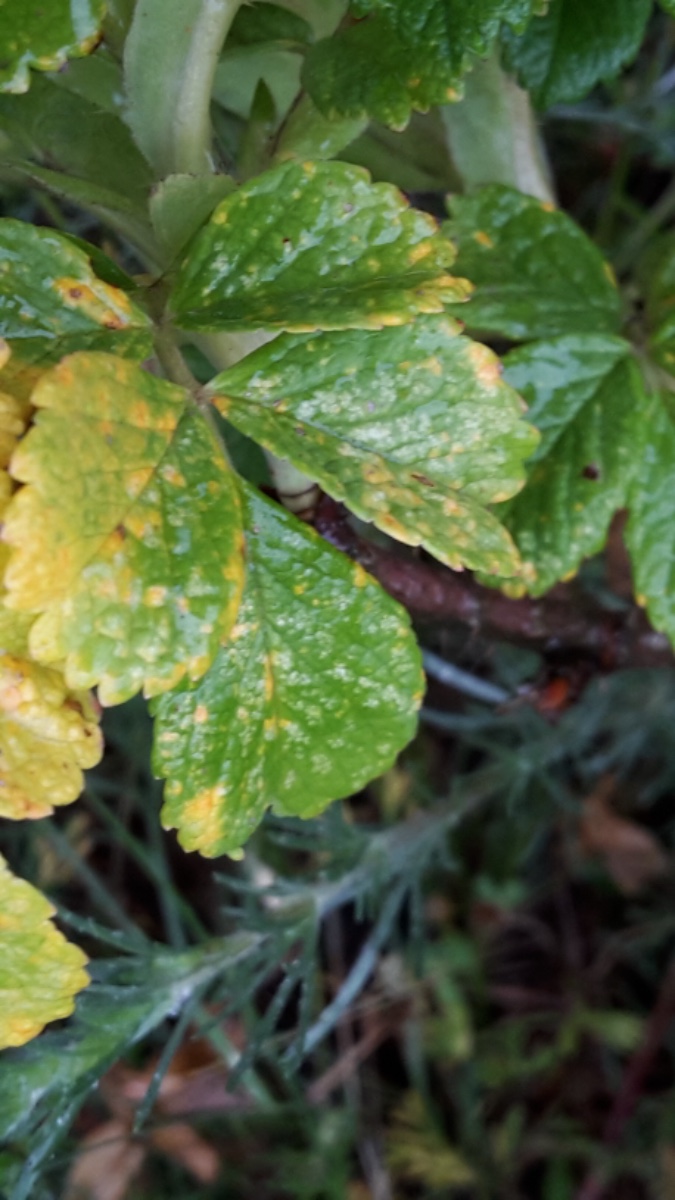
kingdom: Fungi
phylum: Basidiomycota
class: Pucciniomycetes
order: Pucciniales
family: Phragmidiaceae
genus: Phragmidium
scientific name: Phragmidium
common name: flercellerust
